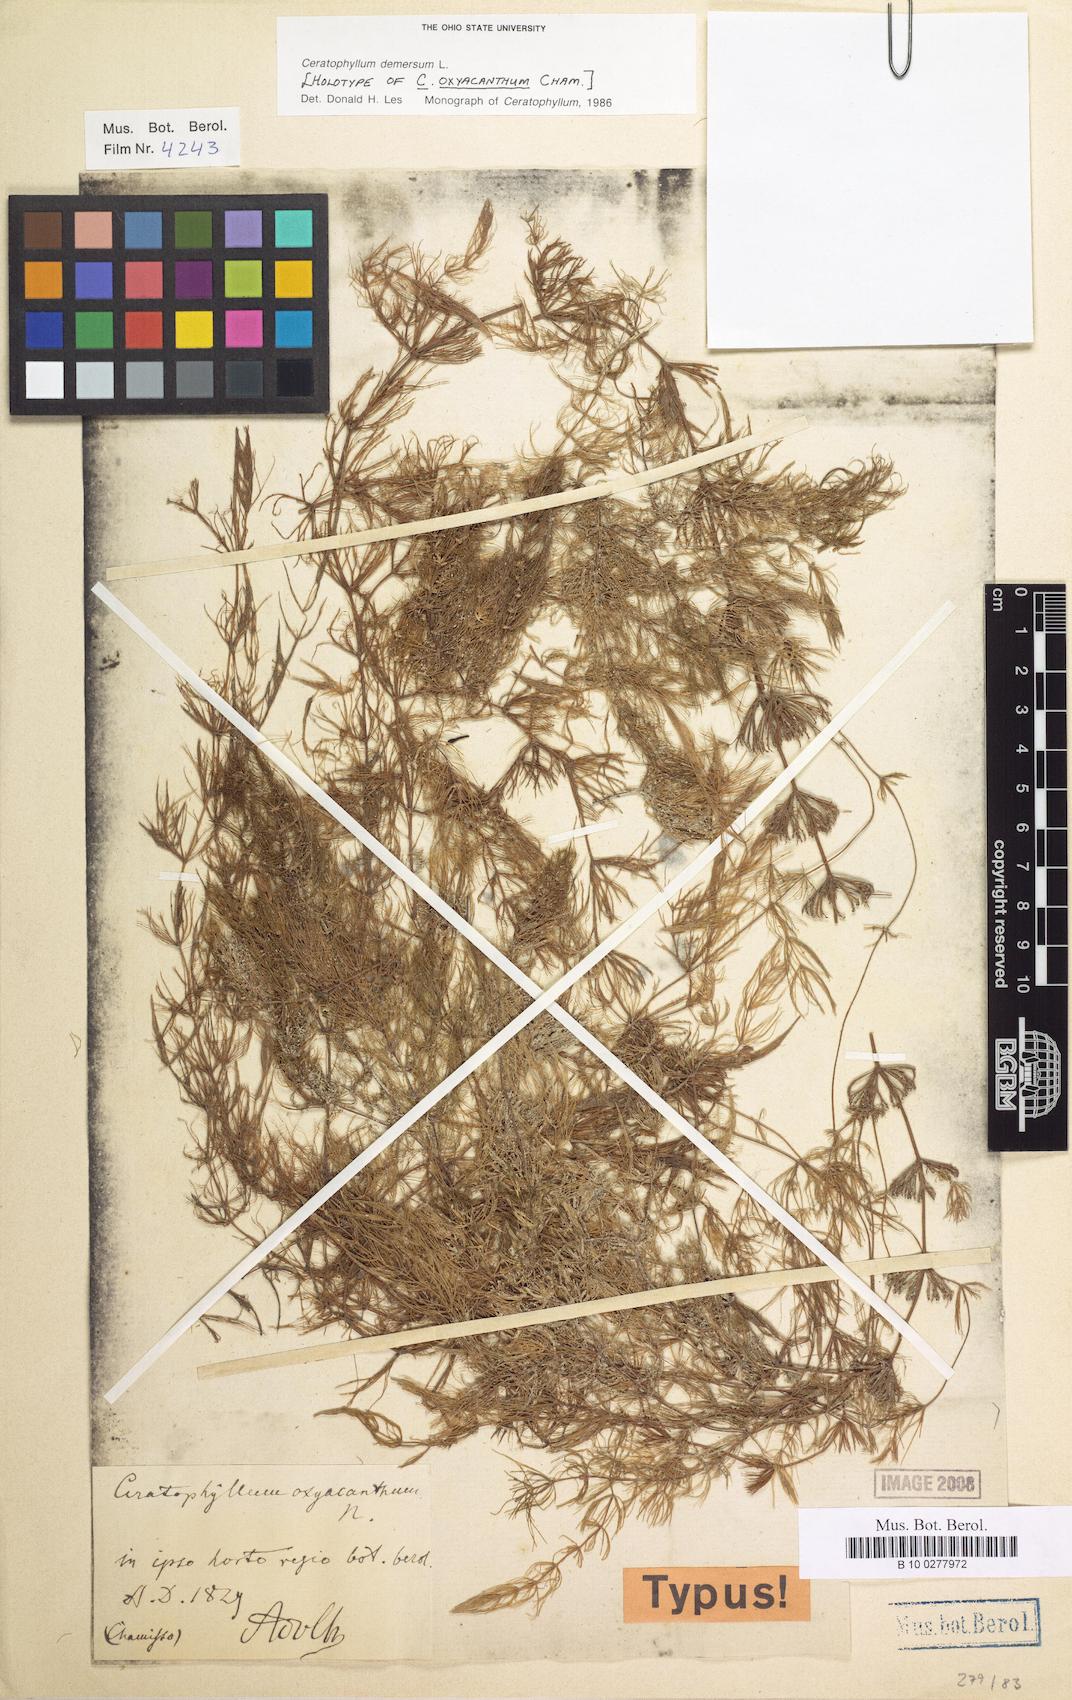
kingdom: Plantae
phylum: Tracheophyta
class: Magnoliopsida
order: Ceratophyllales
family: Ceratophyllaceae
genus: Ceratophyllum
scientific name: Ceratophyllum demersum
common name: Rigid hornwort
